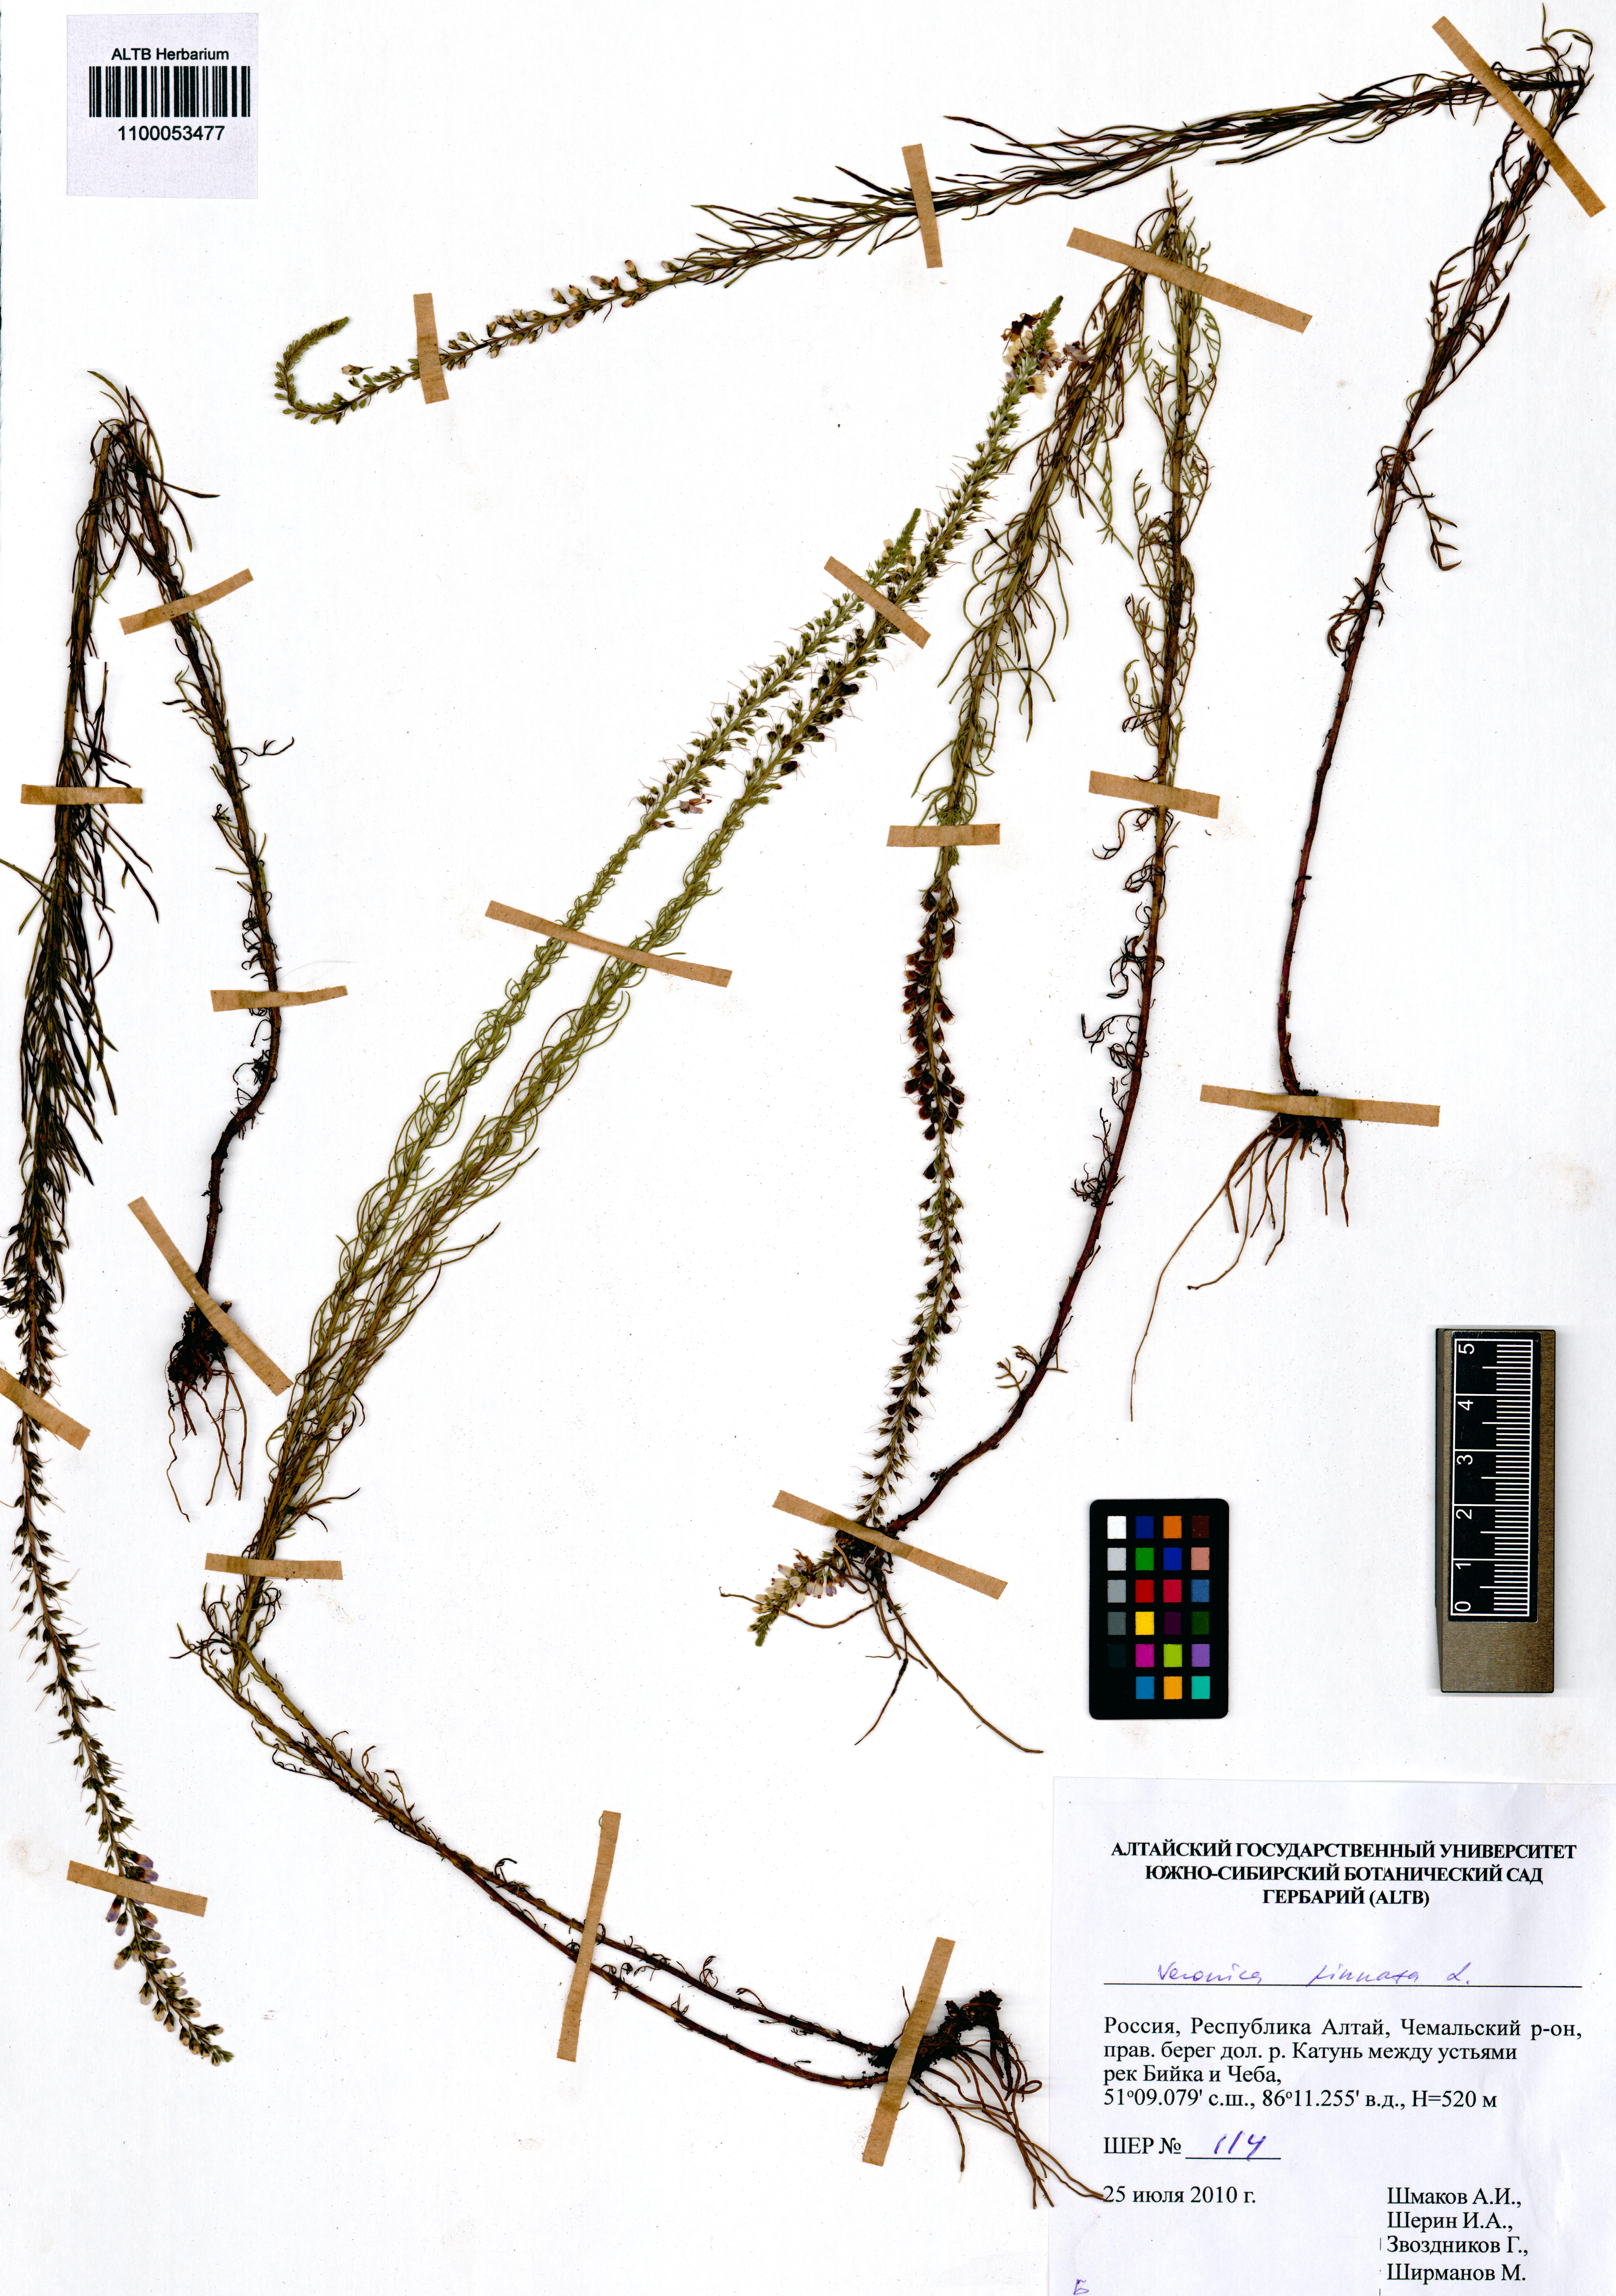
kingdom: Plantae
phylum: Tracheophyta
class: Magnoliopsida
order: Lamiales
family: Plantaginaceae
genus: Veronica
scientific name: Veronica pinnata
